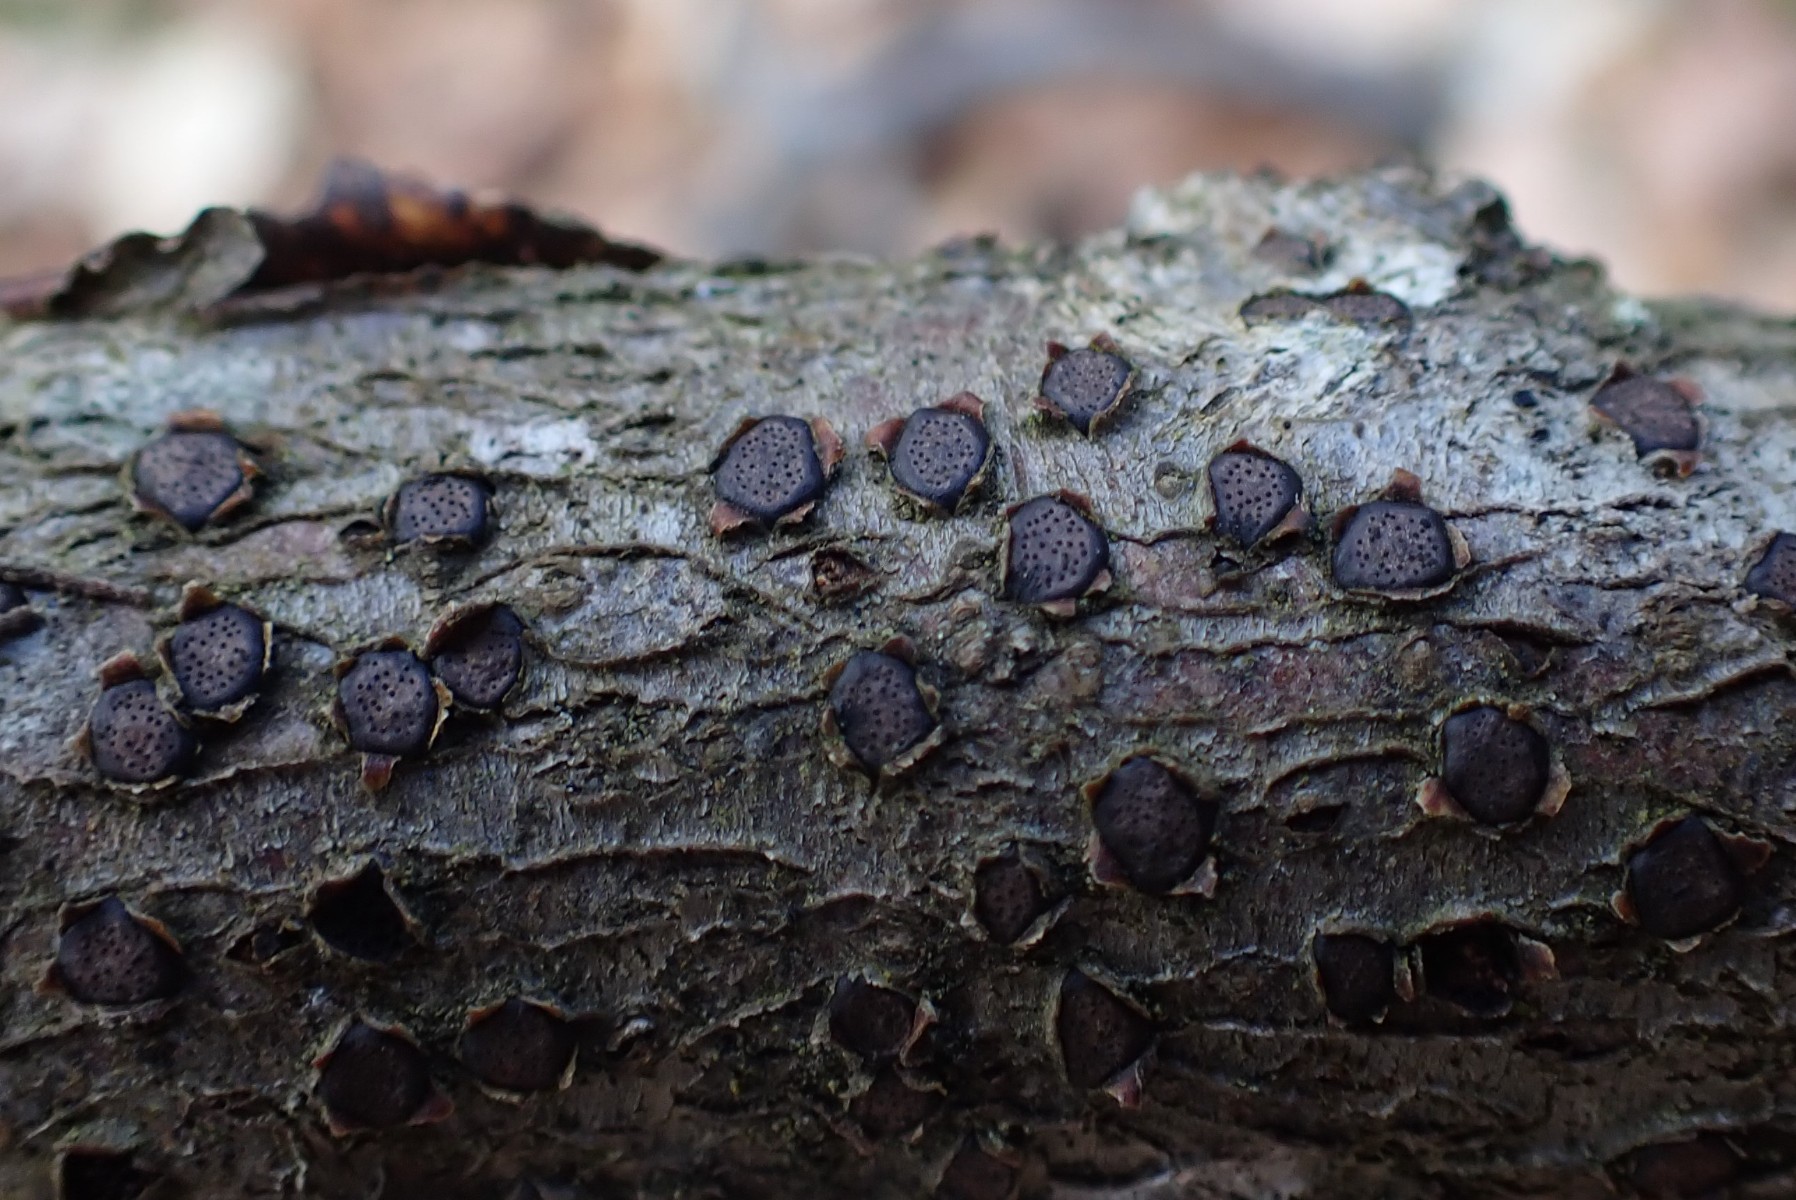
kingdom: Fungi
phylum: Ascomycota
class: Sordariomycetes
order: Xylariales
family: Diatrypaceae
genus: Diatrype
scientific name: Diatrype disciformis
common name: kant-kulskorpe
